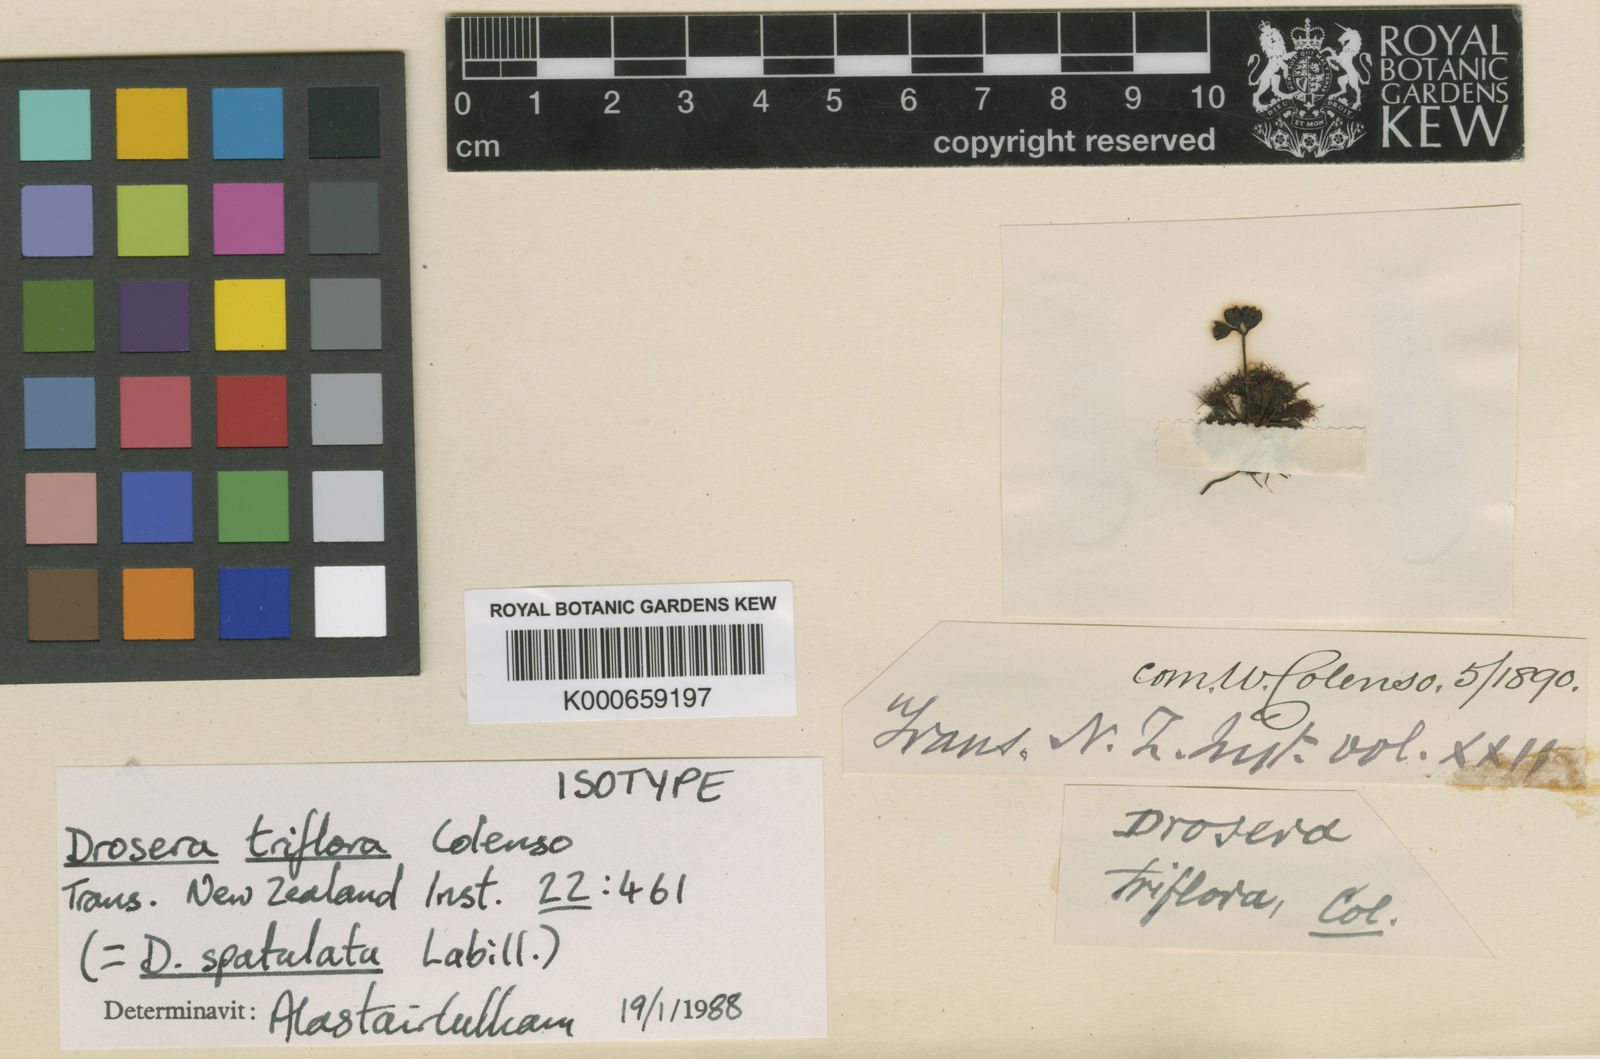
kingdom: Plantae
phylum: Tracheophyta
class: Magnoliopsida
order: Caryophyllales
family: Droseraceae
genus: Drosera
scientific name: Drosera
